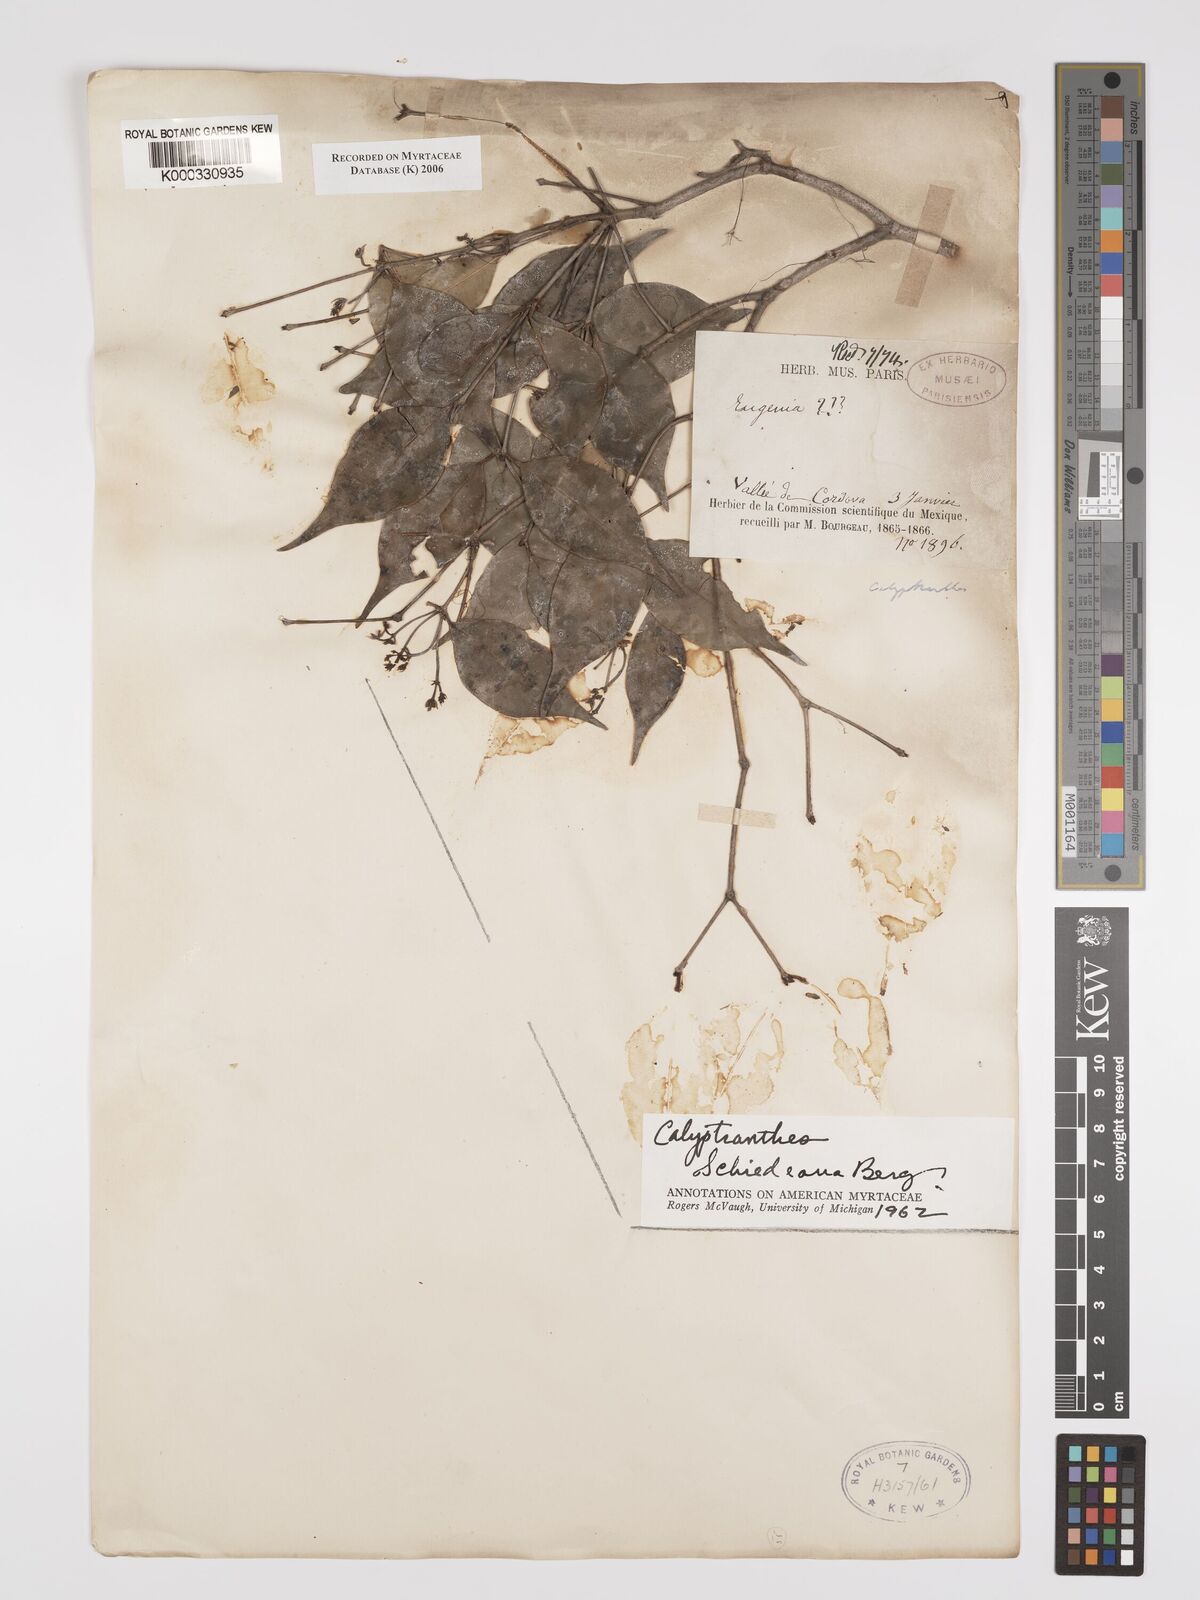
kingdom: Plantae
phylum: Tracheophyta
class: Magnoliopsida
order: Myrtales
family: Myrtaceae
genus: Myrcia
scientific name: Myrcia schiedeana
